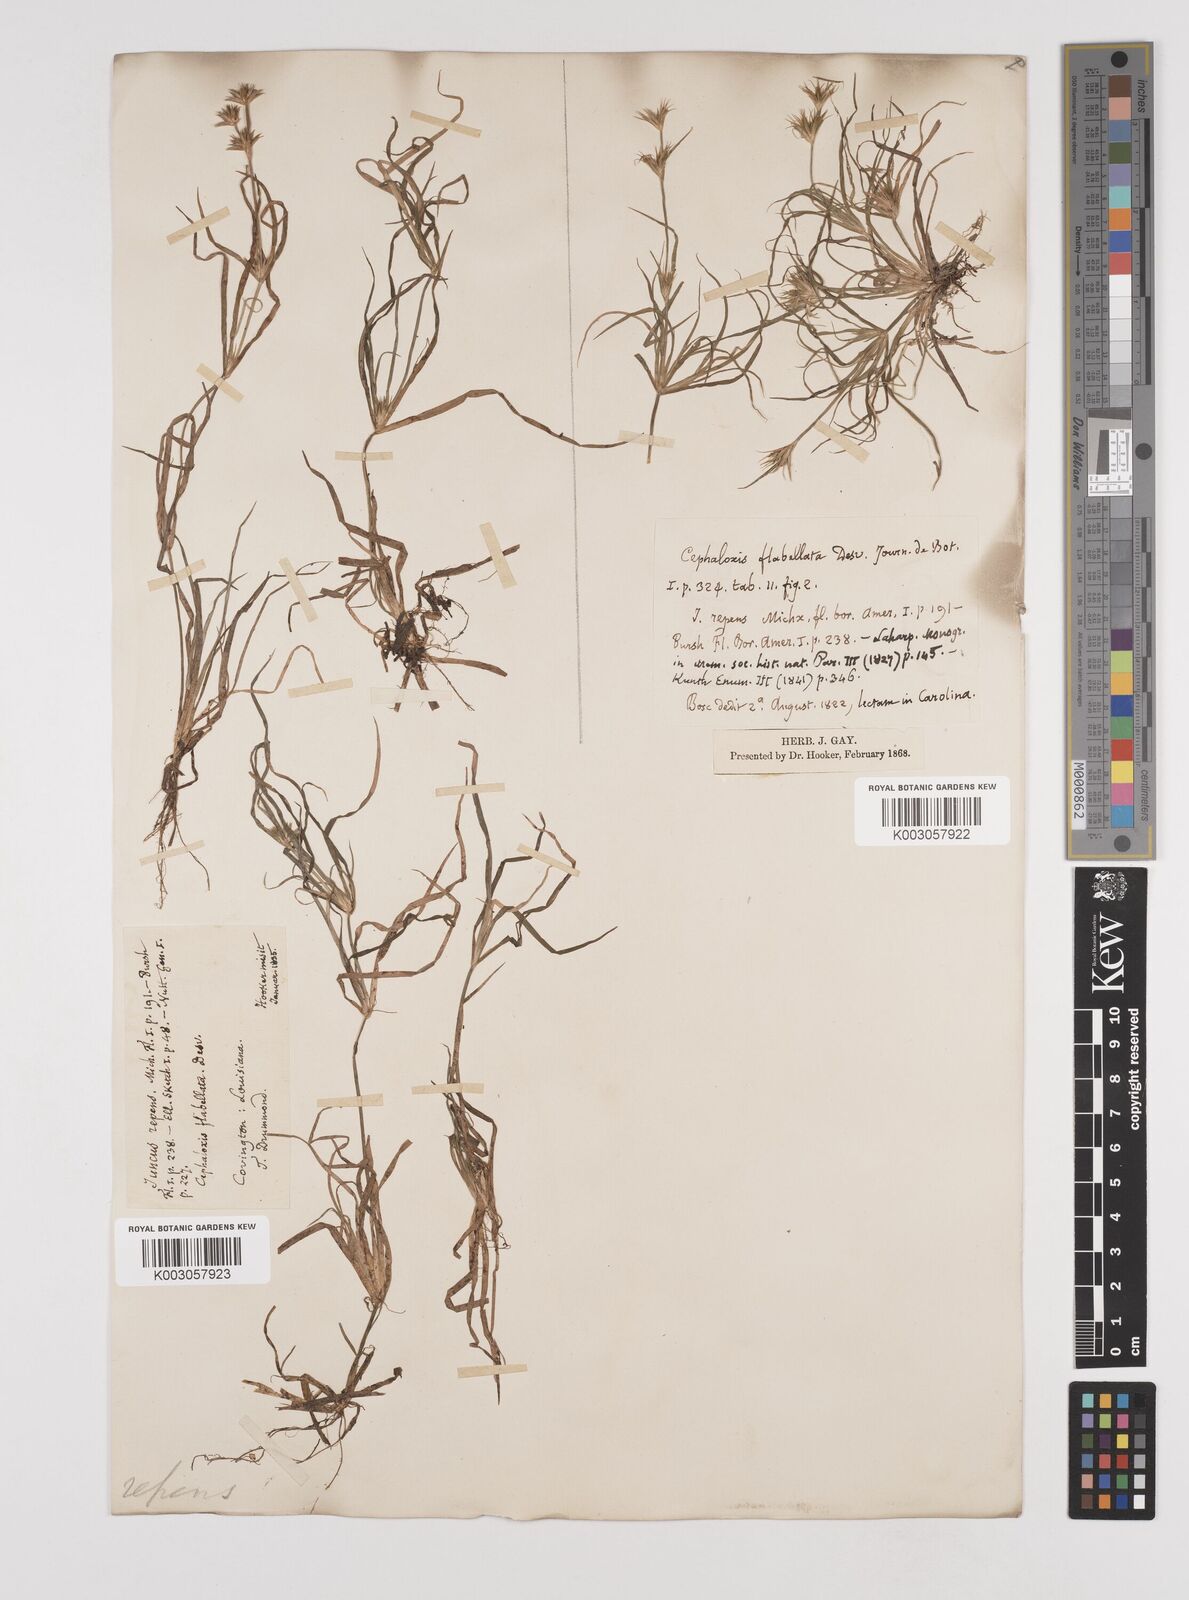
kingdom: Plantae
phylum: Tracheophyta
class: Liliopsida
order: Poales
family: Juncaceae
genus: Juncus
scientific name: Juncus repens
